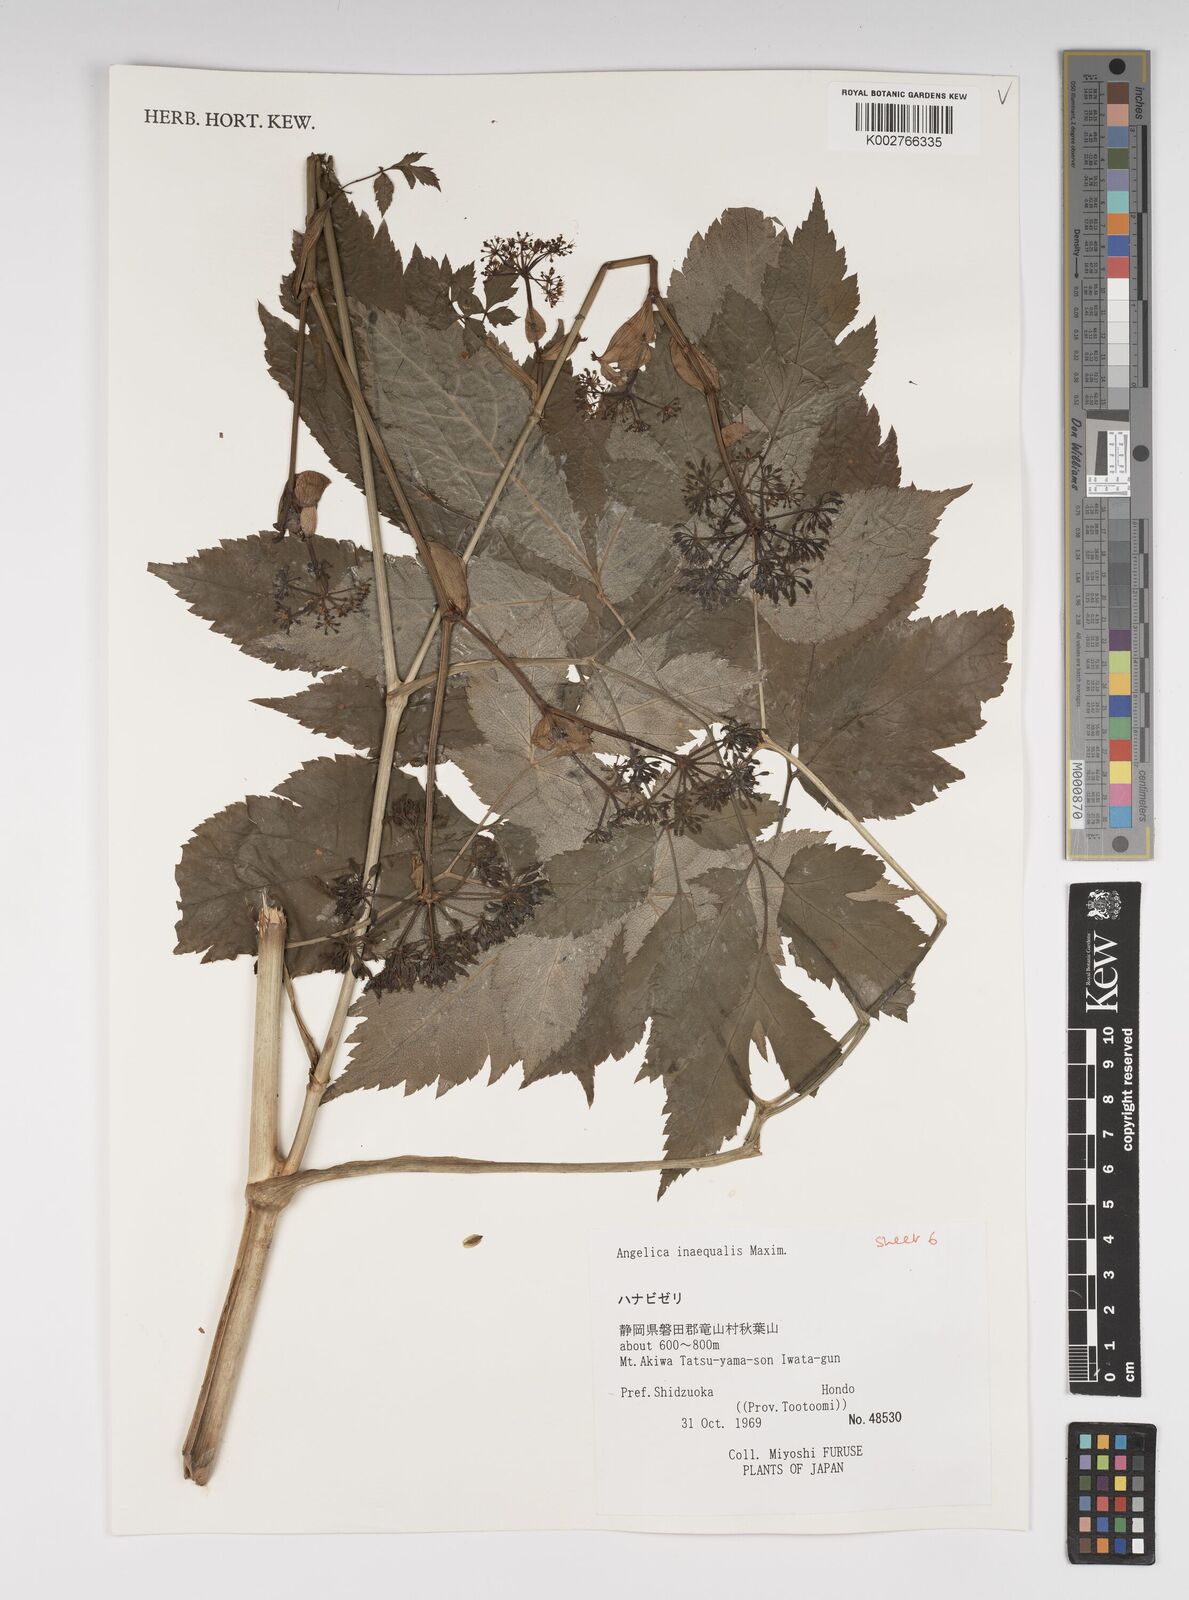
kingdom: Plantae
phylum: Tracheophyta
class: Magnoliopsida
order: Apiales
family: Apiaceae
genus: Angelica
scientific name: Angelica inaequalis
